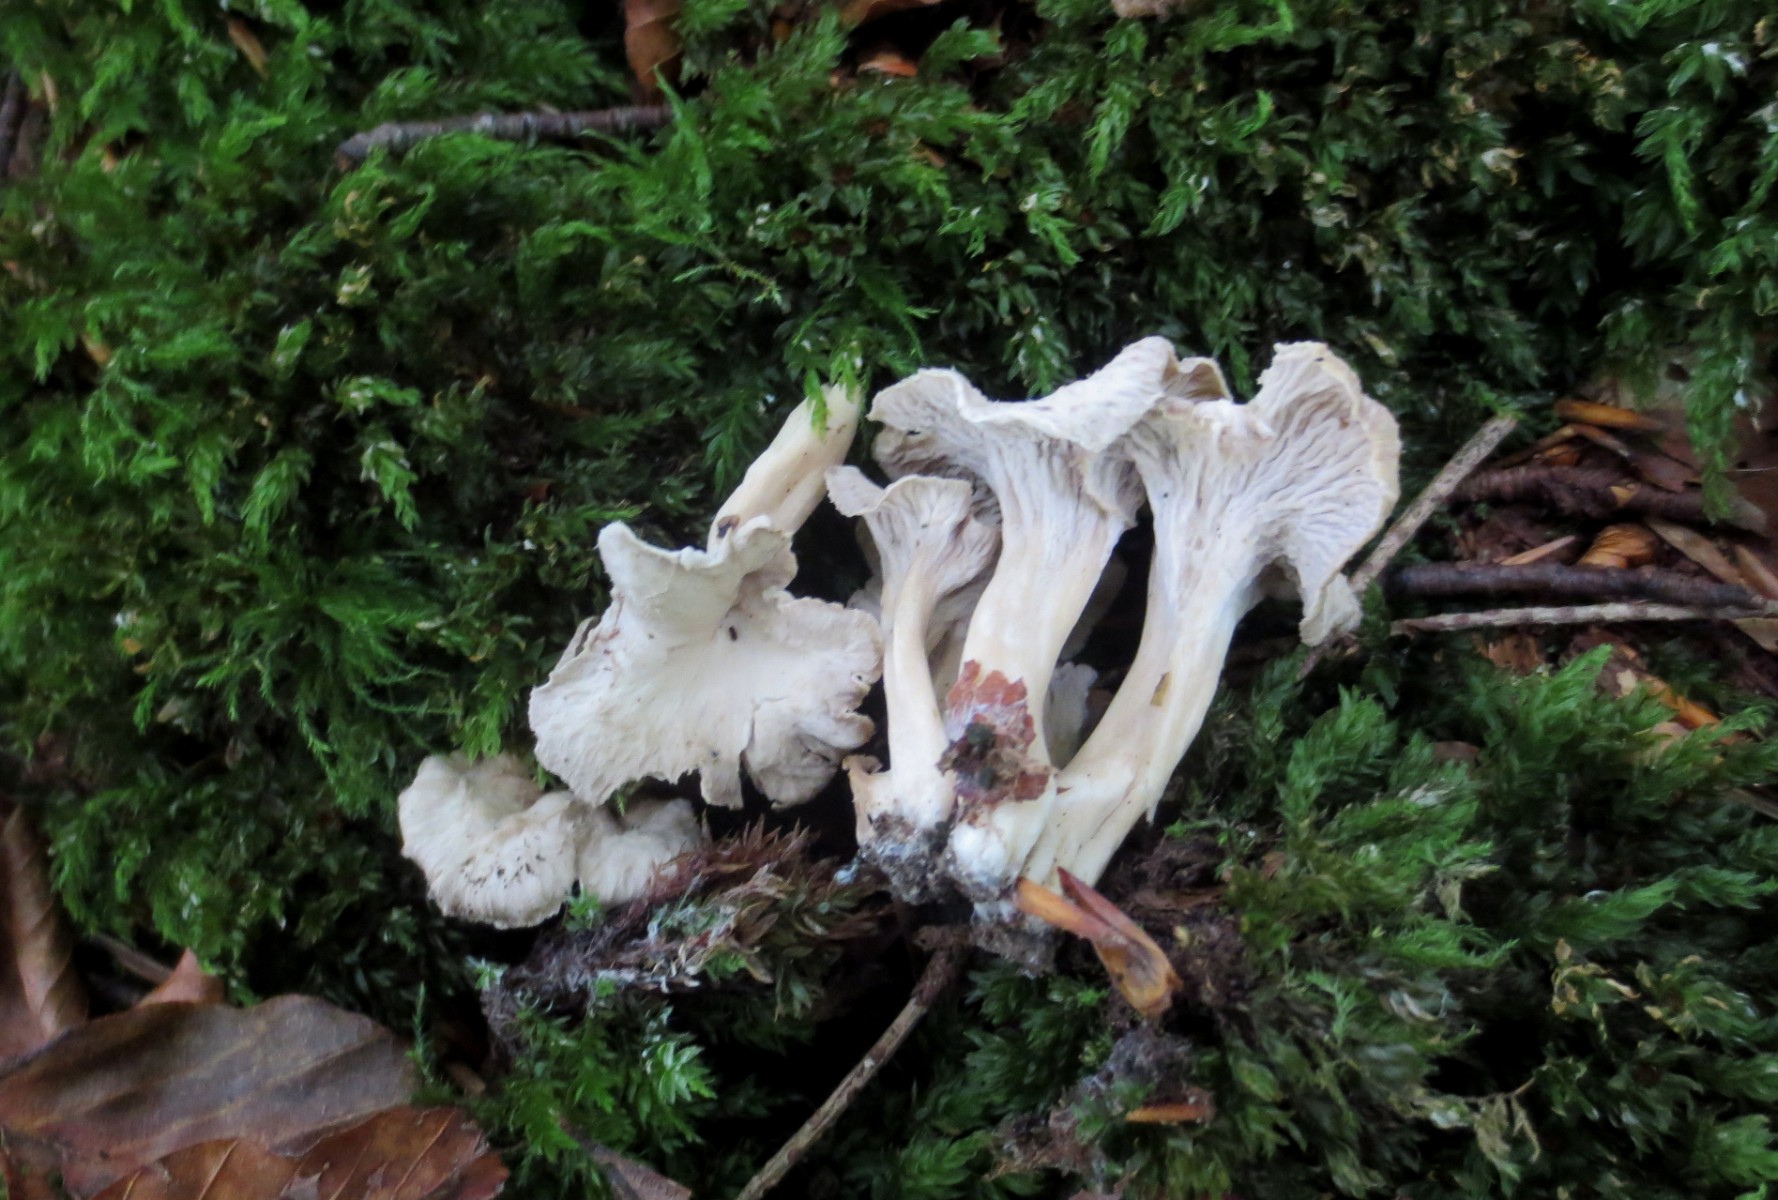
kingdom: Fungi
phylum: Basidiomycota
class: Agaricomycetes
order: Cantharellales
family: Hydnaceae
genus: Craterellus
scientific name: Craterellus undulatus
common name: liden kantarel
